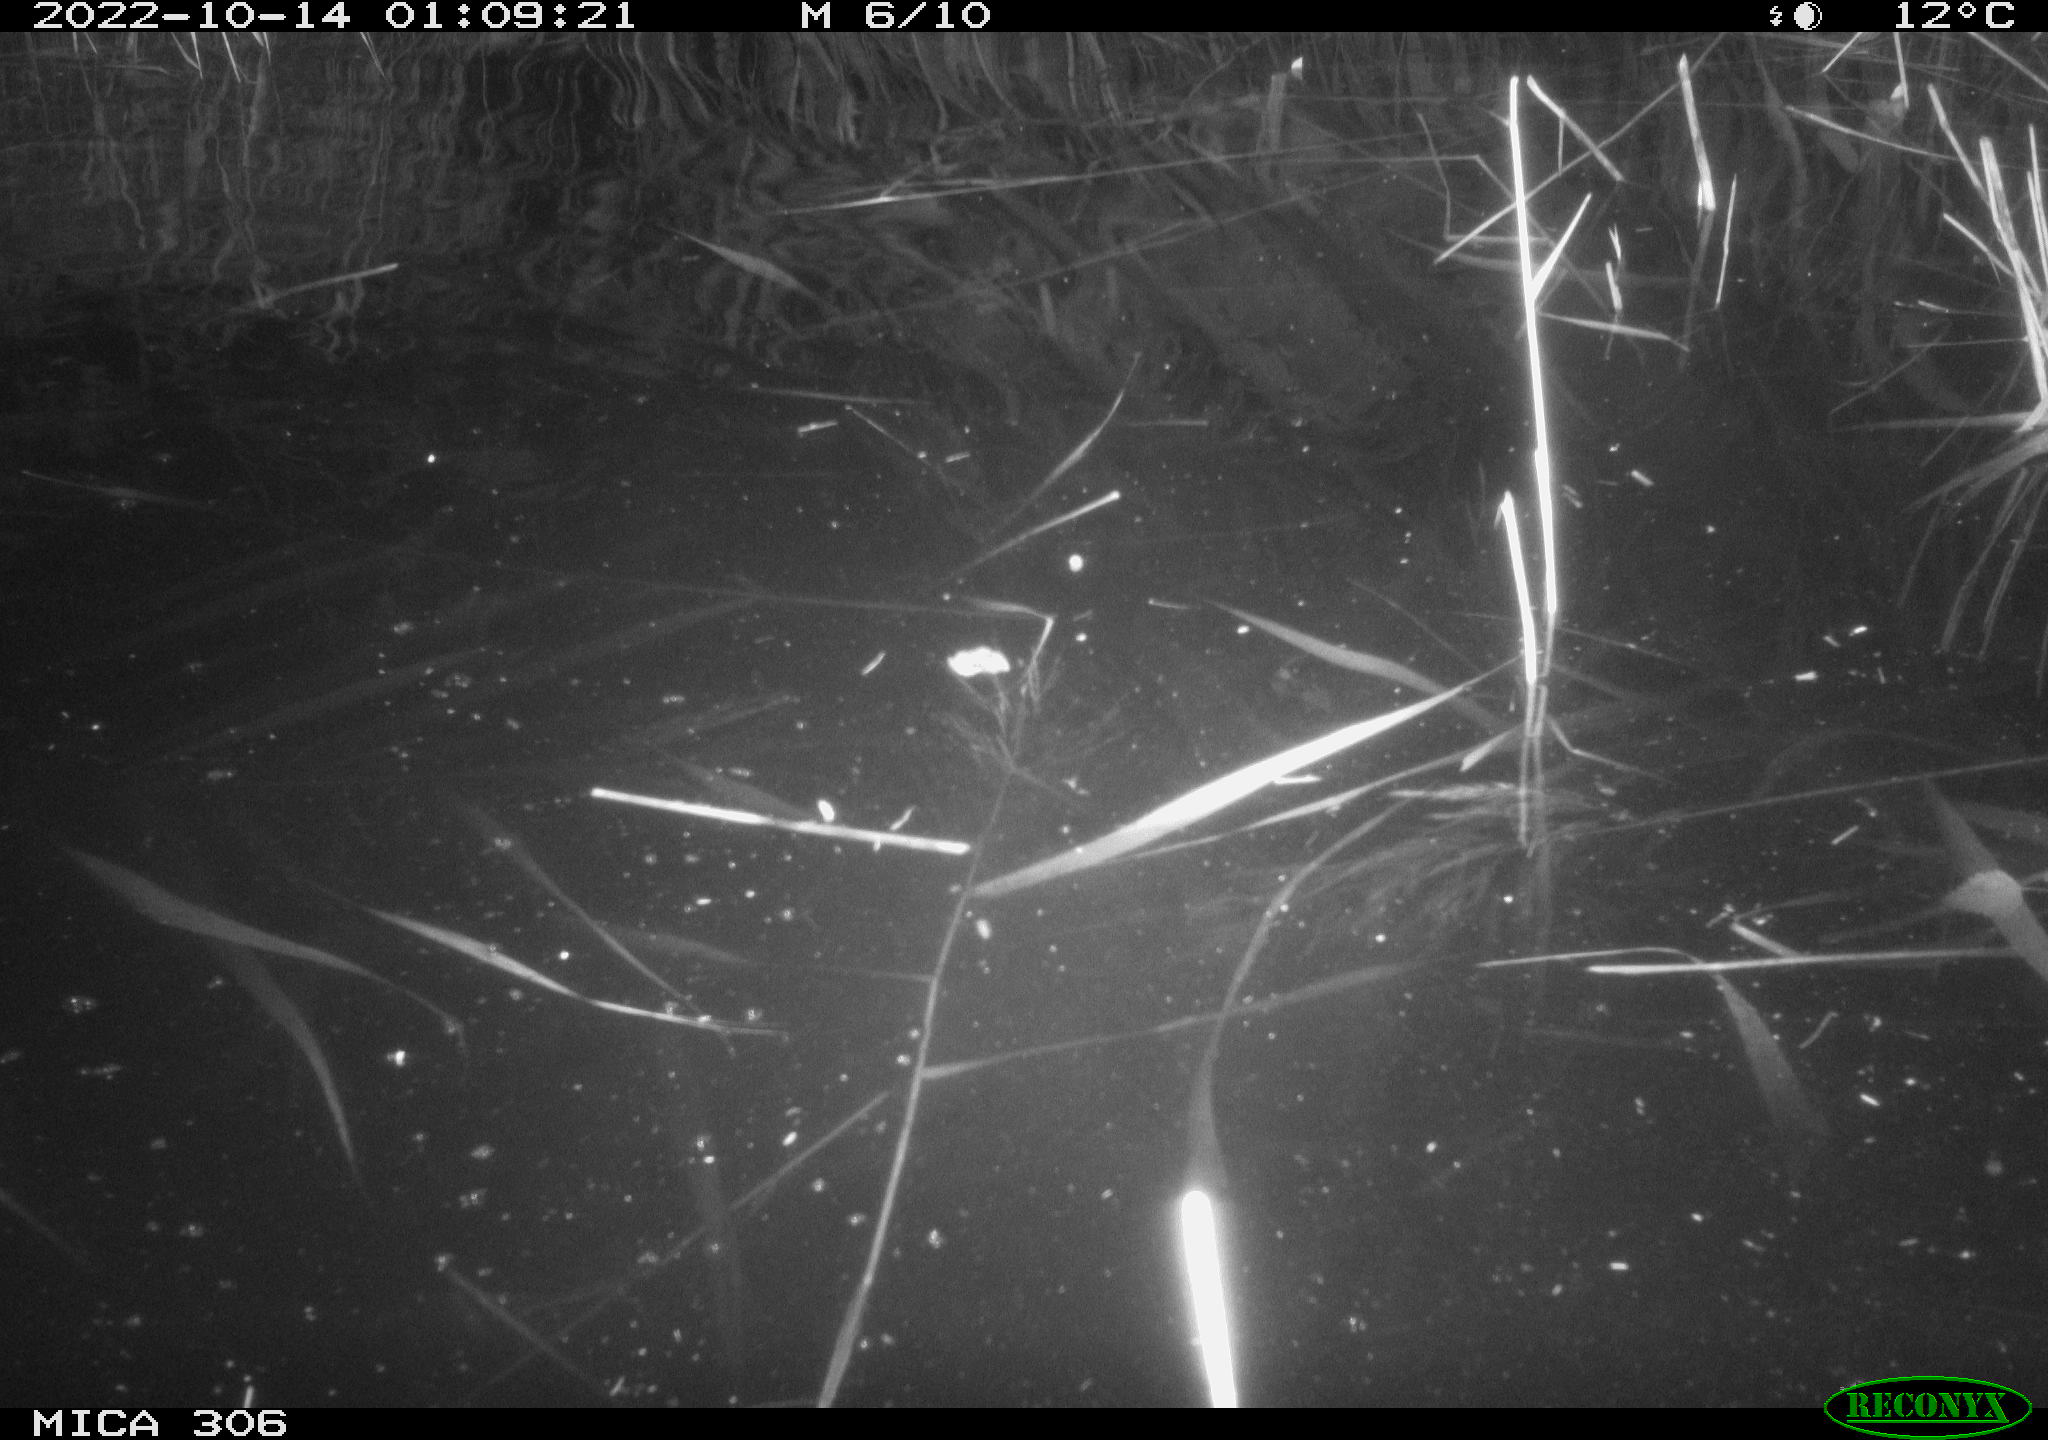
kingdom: Animalia
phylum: Chordata
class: Mammalia
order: Rodentia
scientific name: Rodentia
